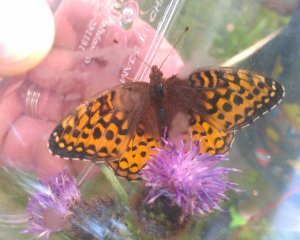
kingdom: Animalia
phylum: Arthropoda
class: Insecta
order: Lepidoptera
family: Nymphalidae
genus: Speyeria
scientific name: Speyeria cybele
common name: Great Spangled Fritillary
